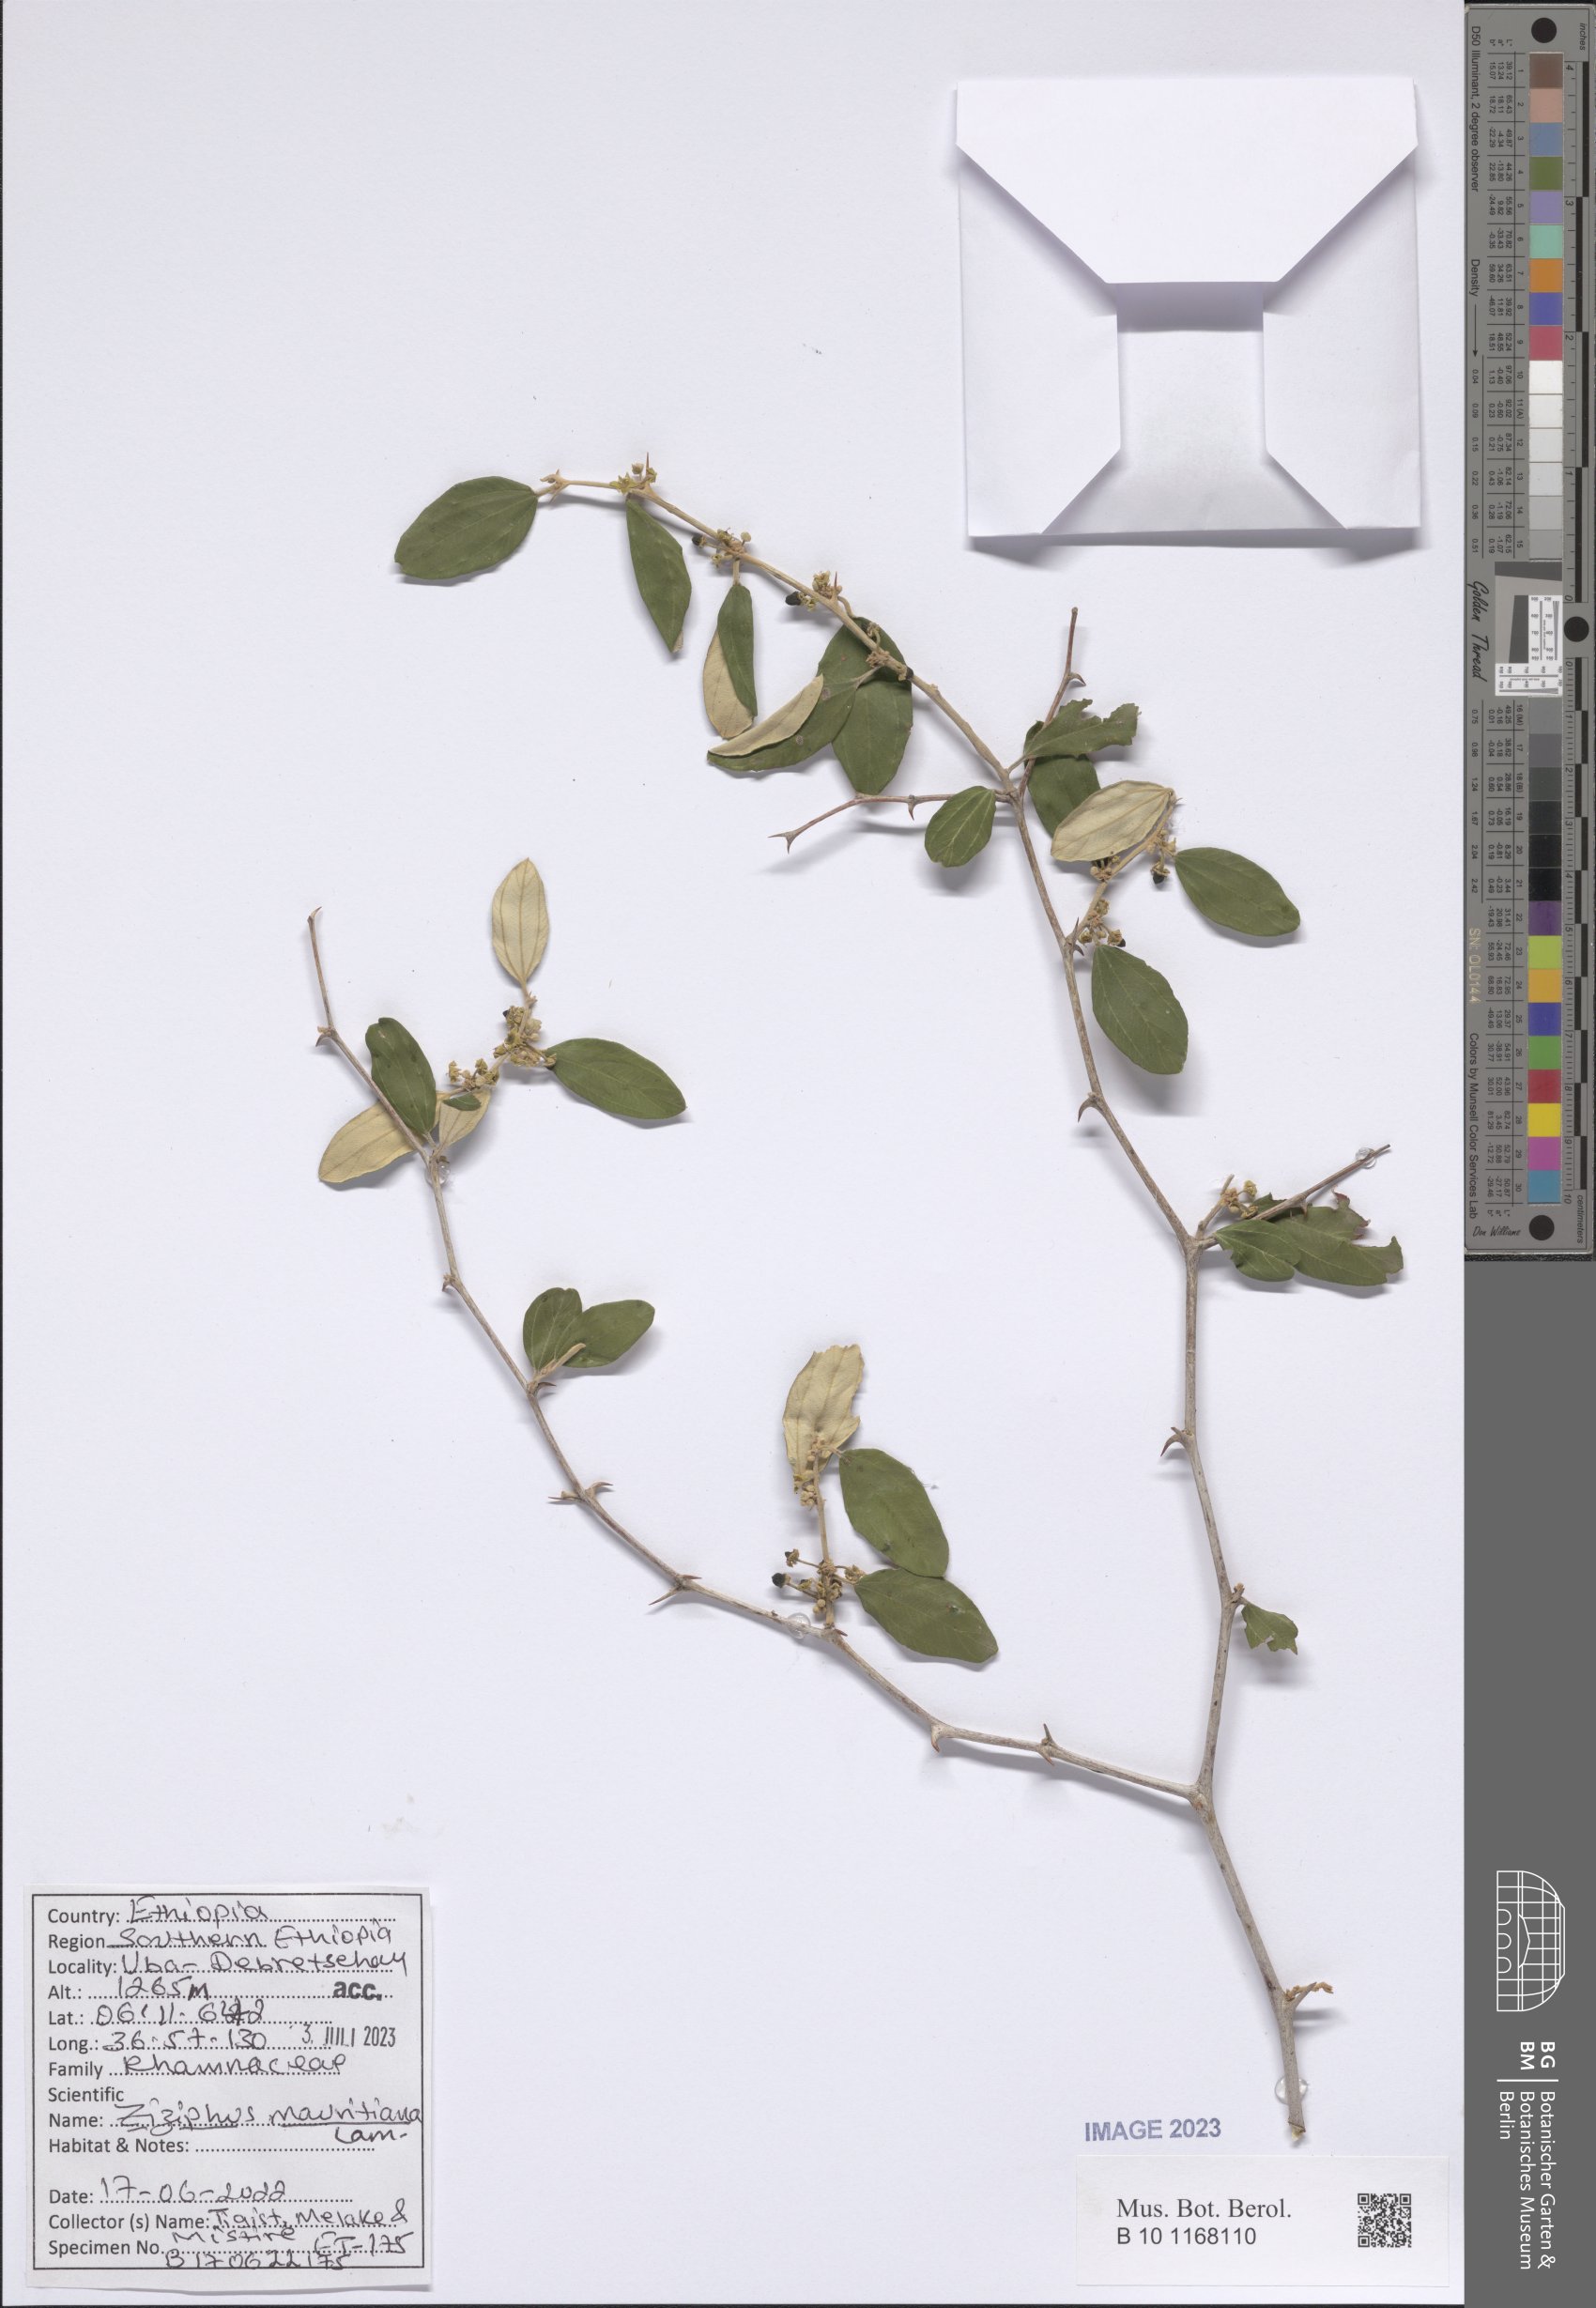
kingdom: Plantae
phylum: Tracheophyta
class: Magnoliopsida
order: Rosales
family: Rhamnaceae
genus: Ziziphus
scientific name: Ziziphus mauritiana
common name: Indian jujube
